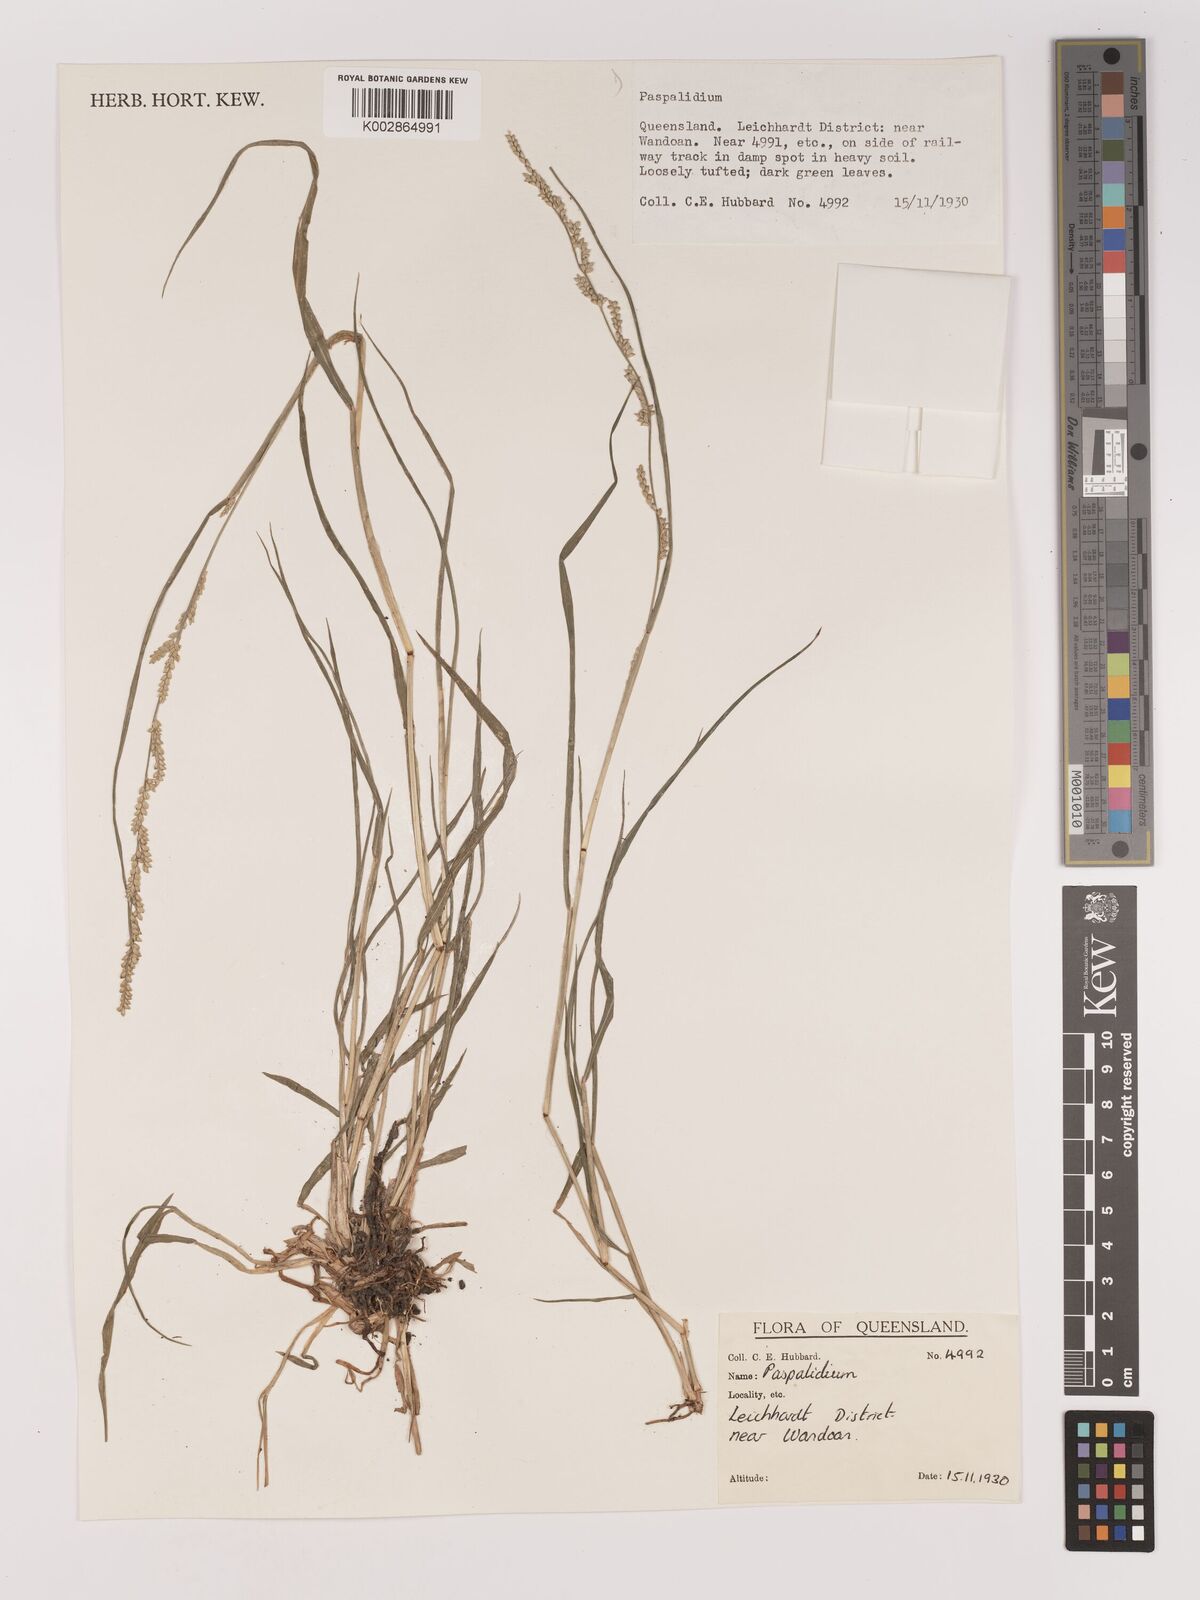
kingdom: Plantae
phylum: Tracheophyta
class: Liliopsida
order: Poales
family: Poaceae
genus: Setaria
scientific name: Setaria
